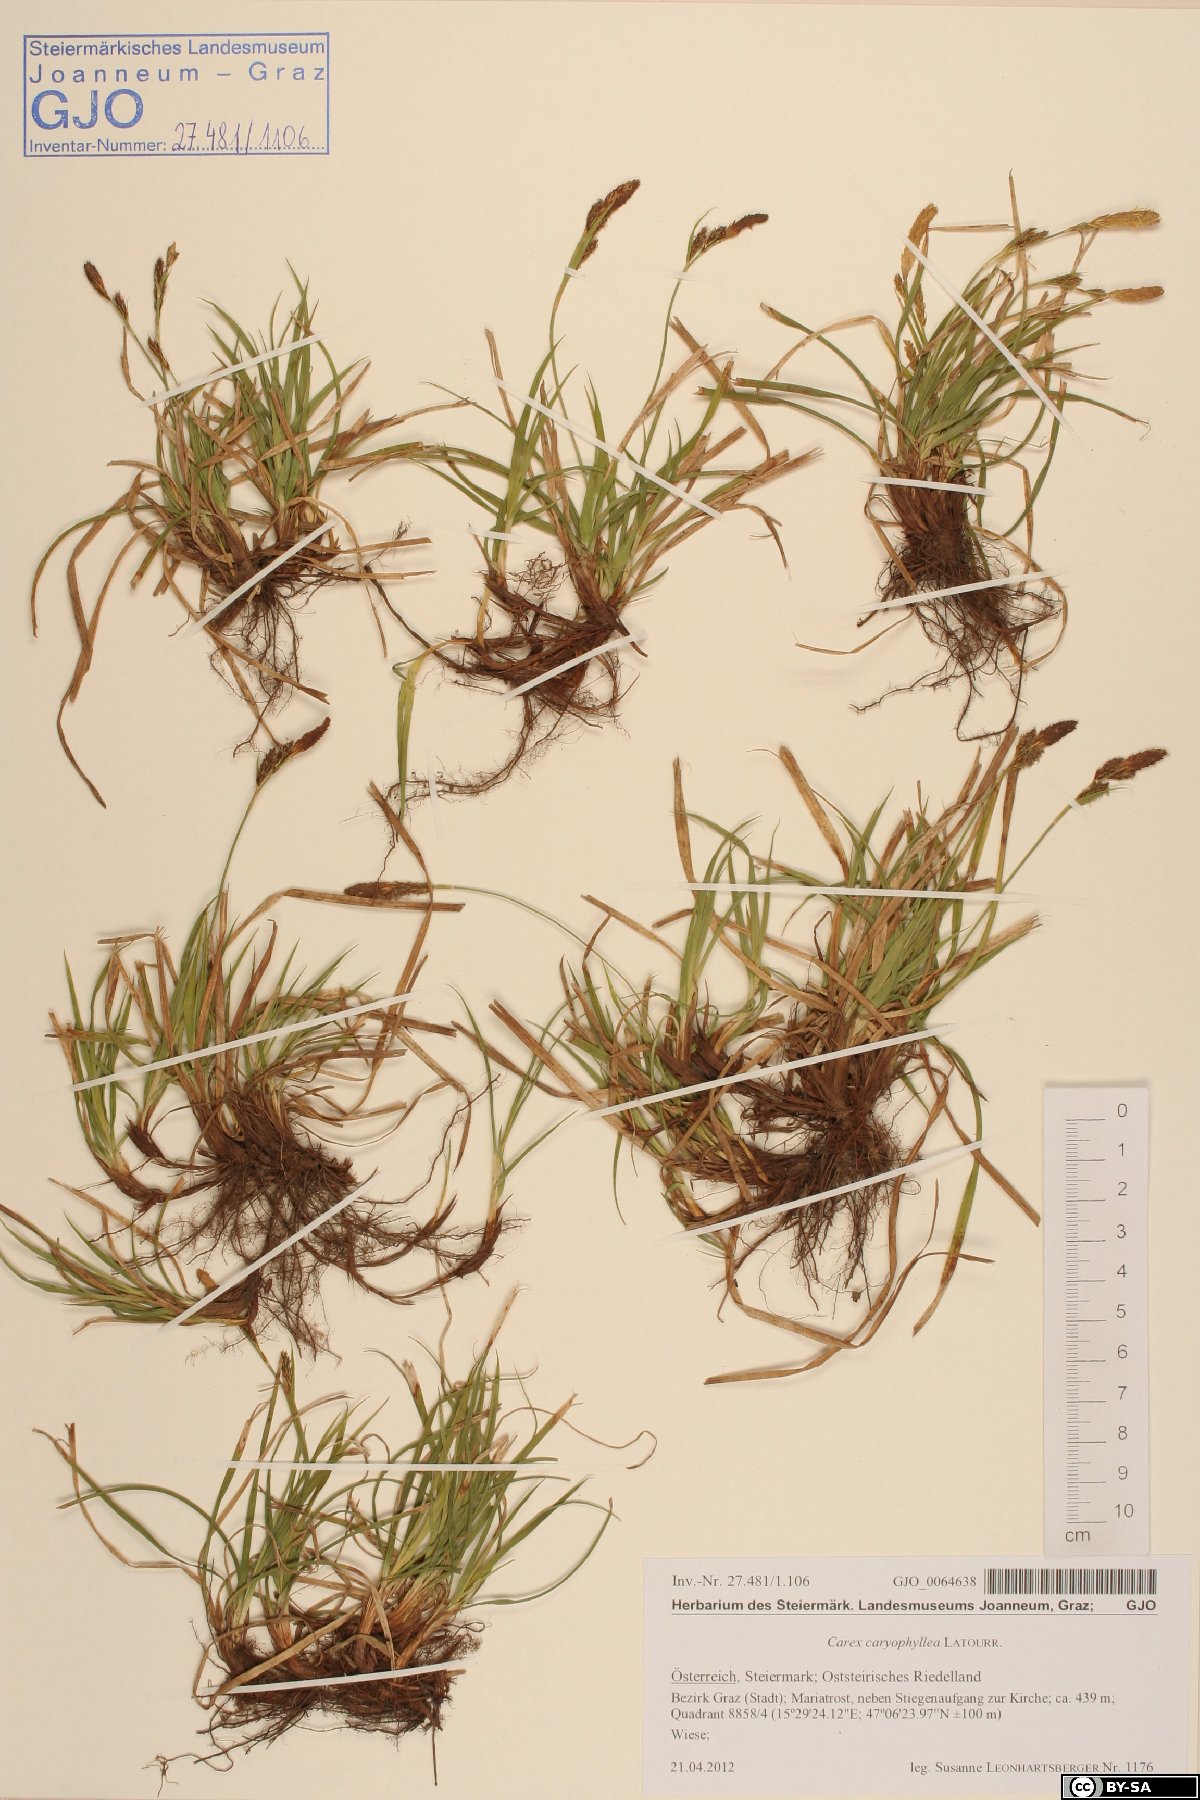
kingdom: Plantae
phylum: Tracheophyta
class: Liliopsida
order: Poales
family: Cyperaceae
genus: Carex
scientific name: Carex caryophyllea
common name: Spring sedge
